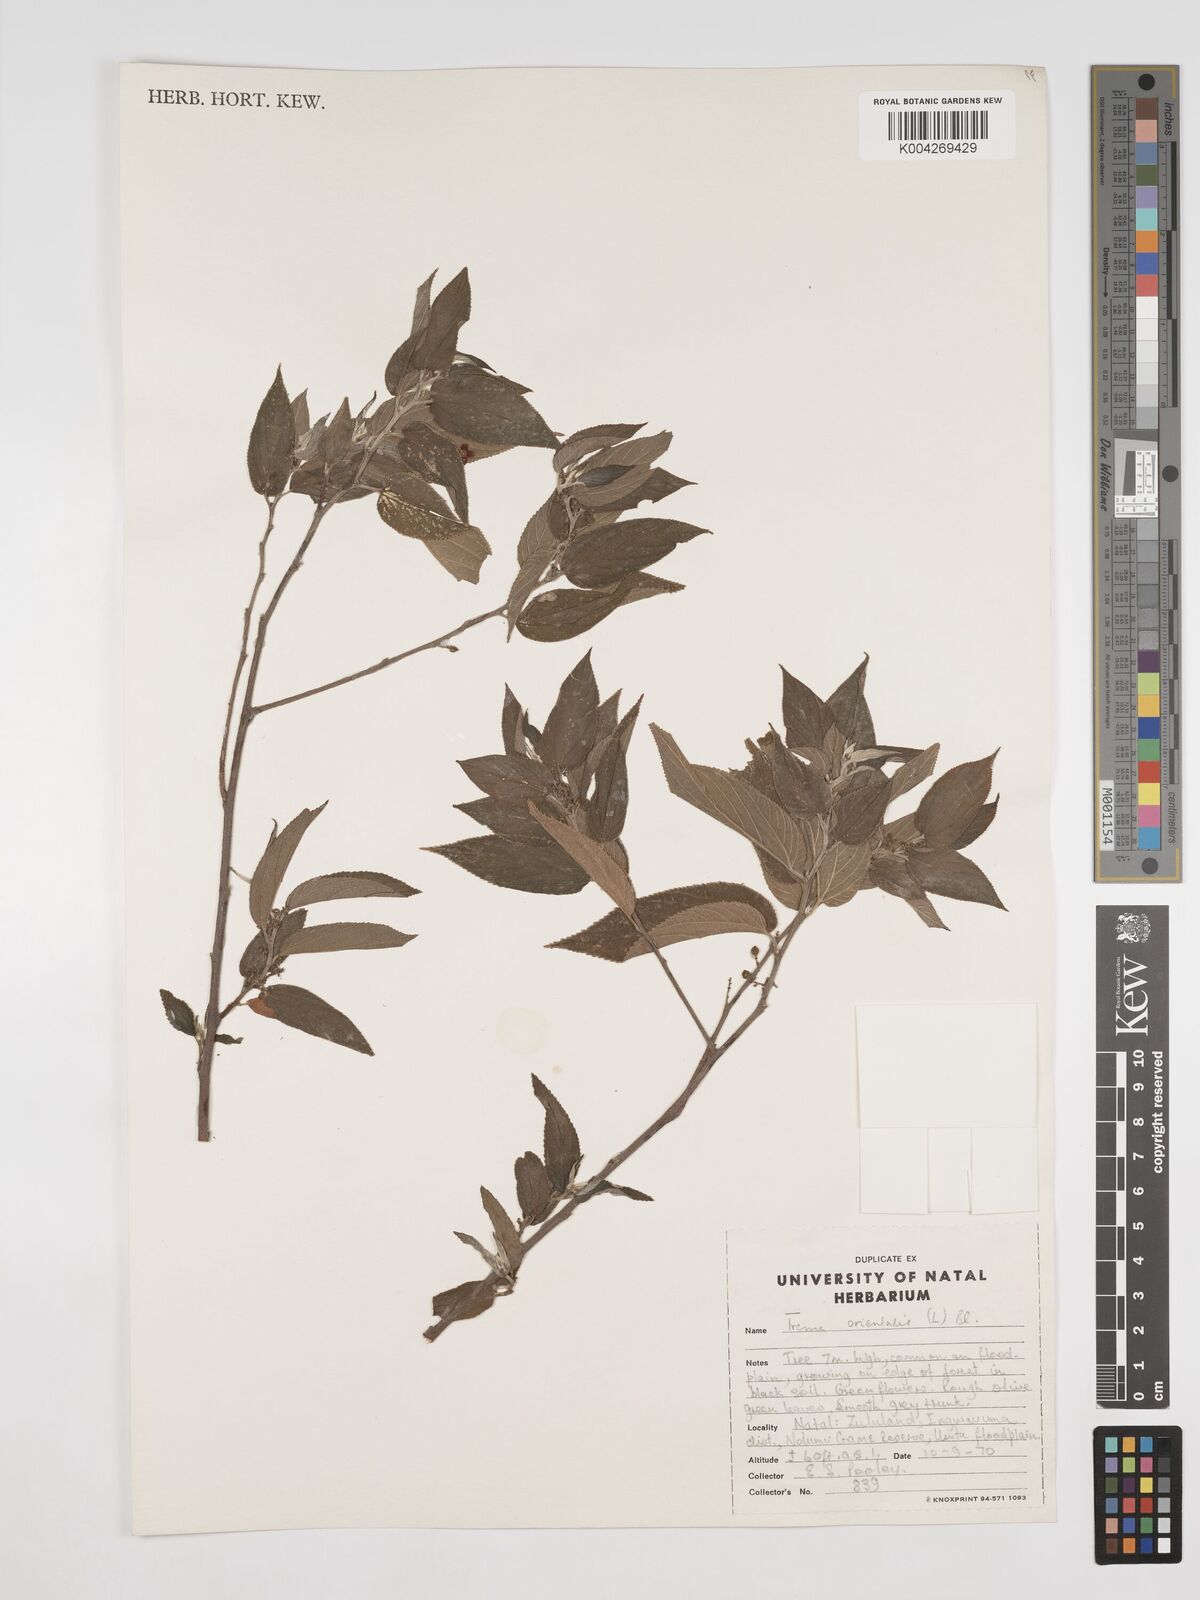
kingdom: Plantae
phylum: Tracheophyta
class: Magnoliopsida
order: Rosales
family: Cannabaceae
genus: Trema
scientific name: Trema orientale
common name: Indian charcoal tree
